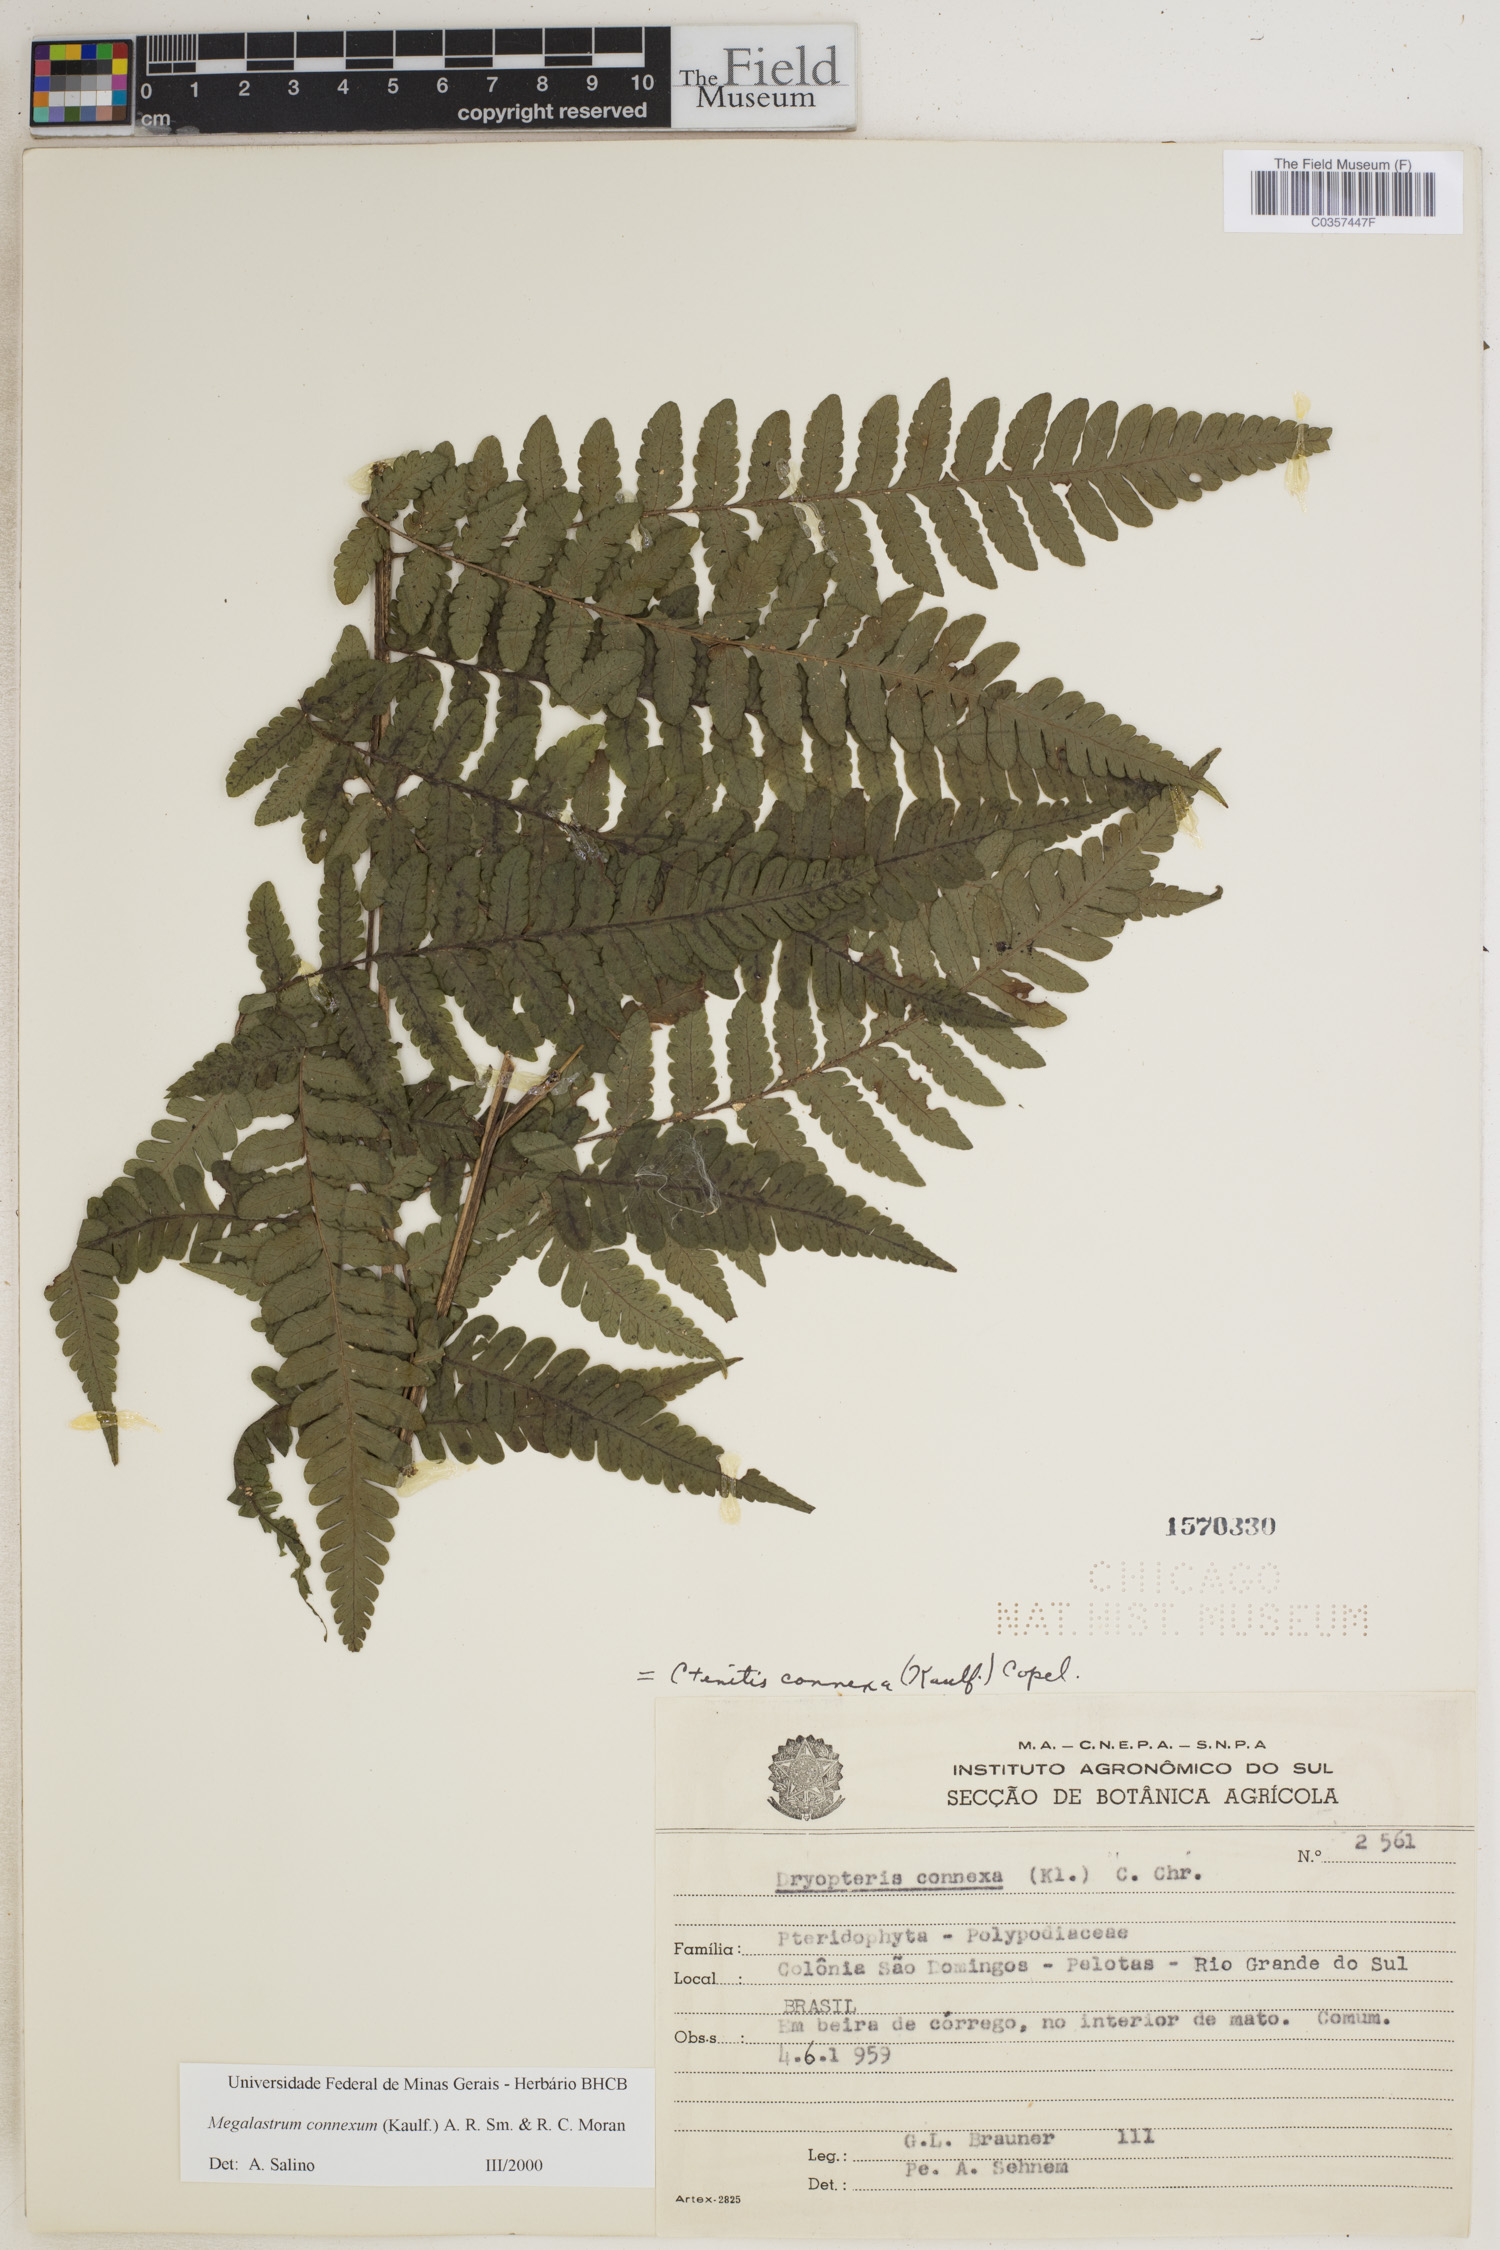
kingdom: Plantae
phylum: Tracheophyta
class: Polypodiopsida
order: Polypodiales
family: Dryopteridaceae
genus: Megalastrum
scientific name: Megalastrum connexum
